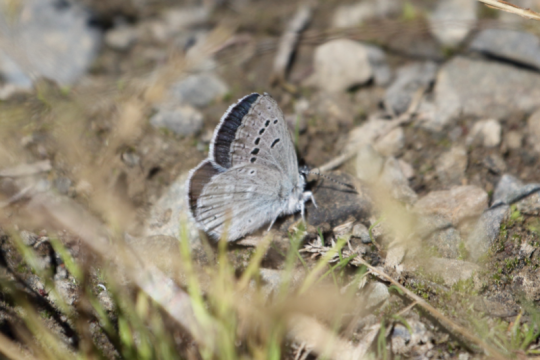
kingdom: Animalia
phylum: Arthropoda
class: Insecta
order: Lepidoptera
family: Lycaenidae
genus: Icaricia
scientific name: Icaricia icarioides
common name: Boisduval's Blue
